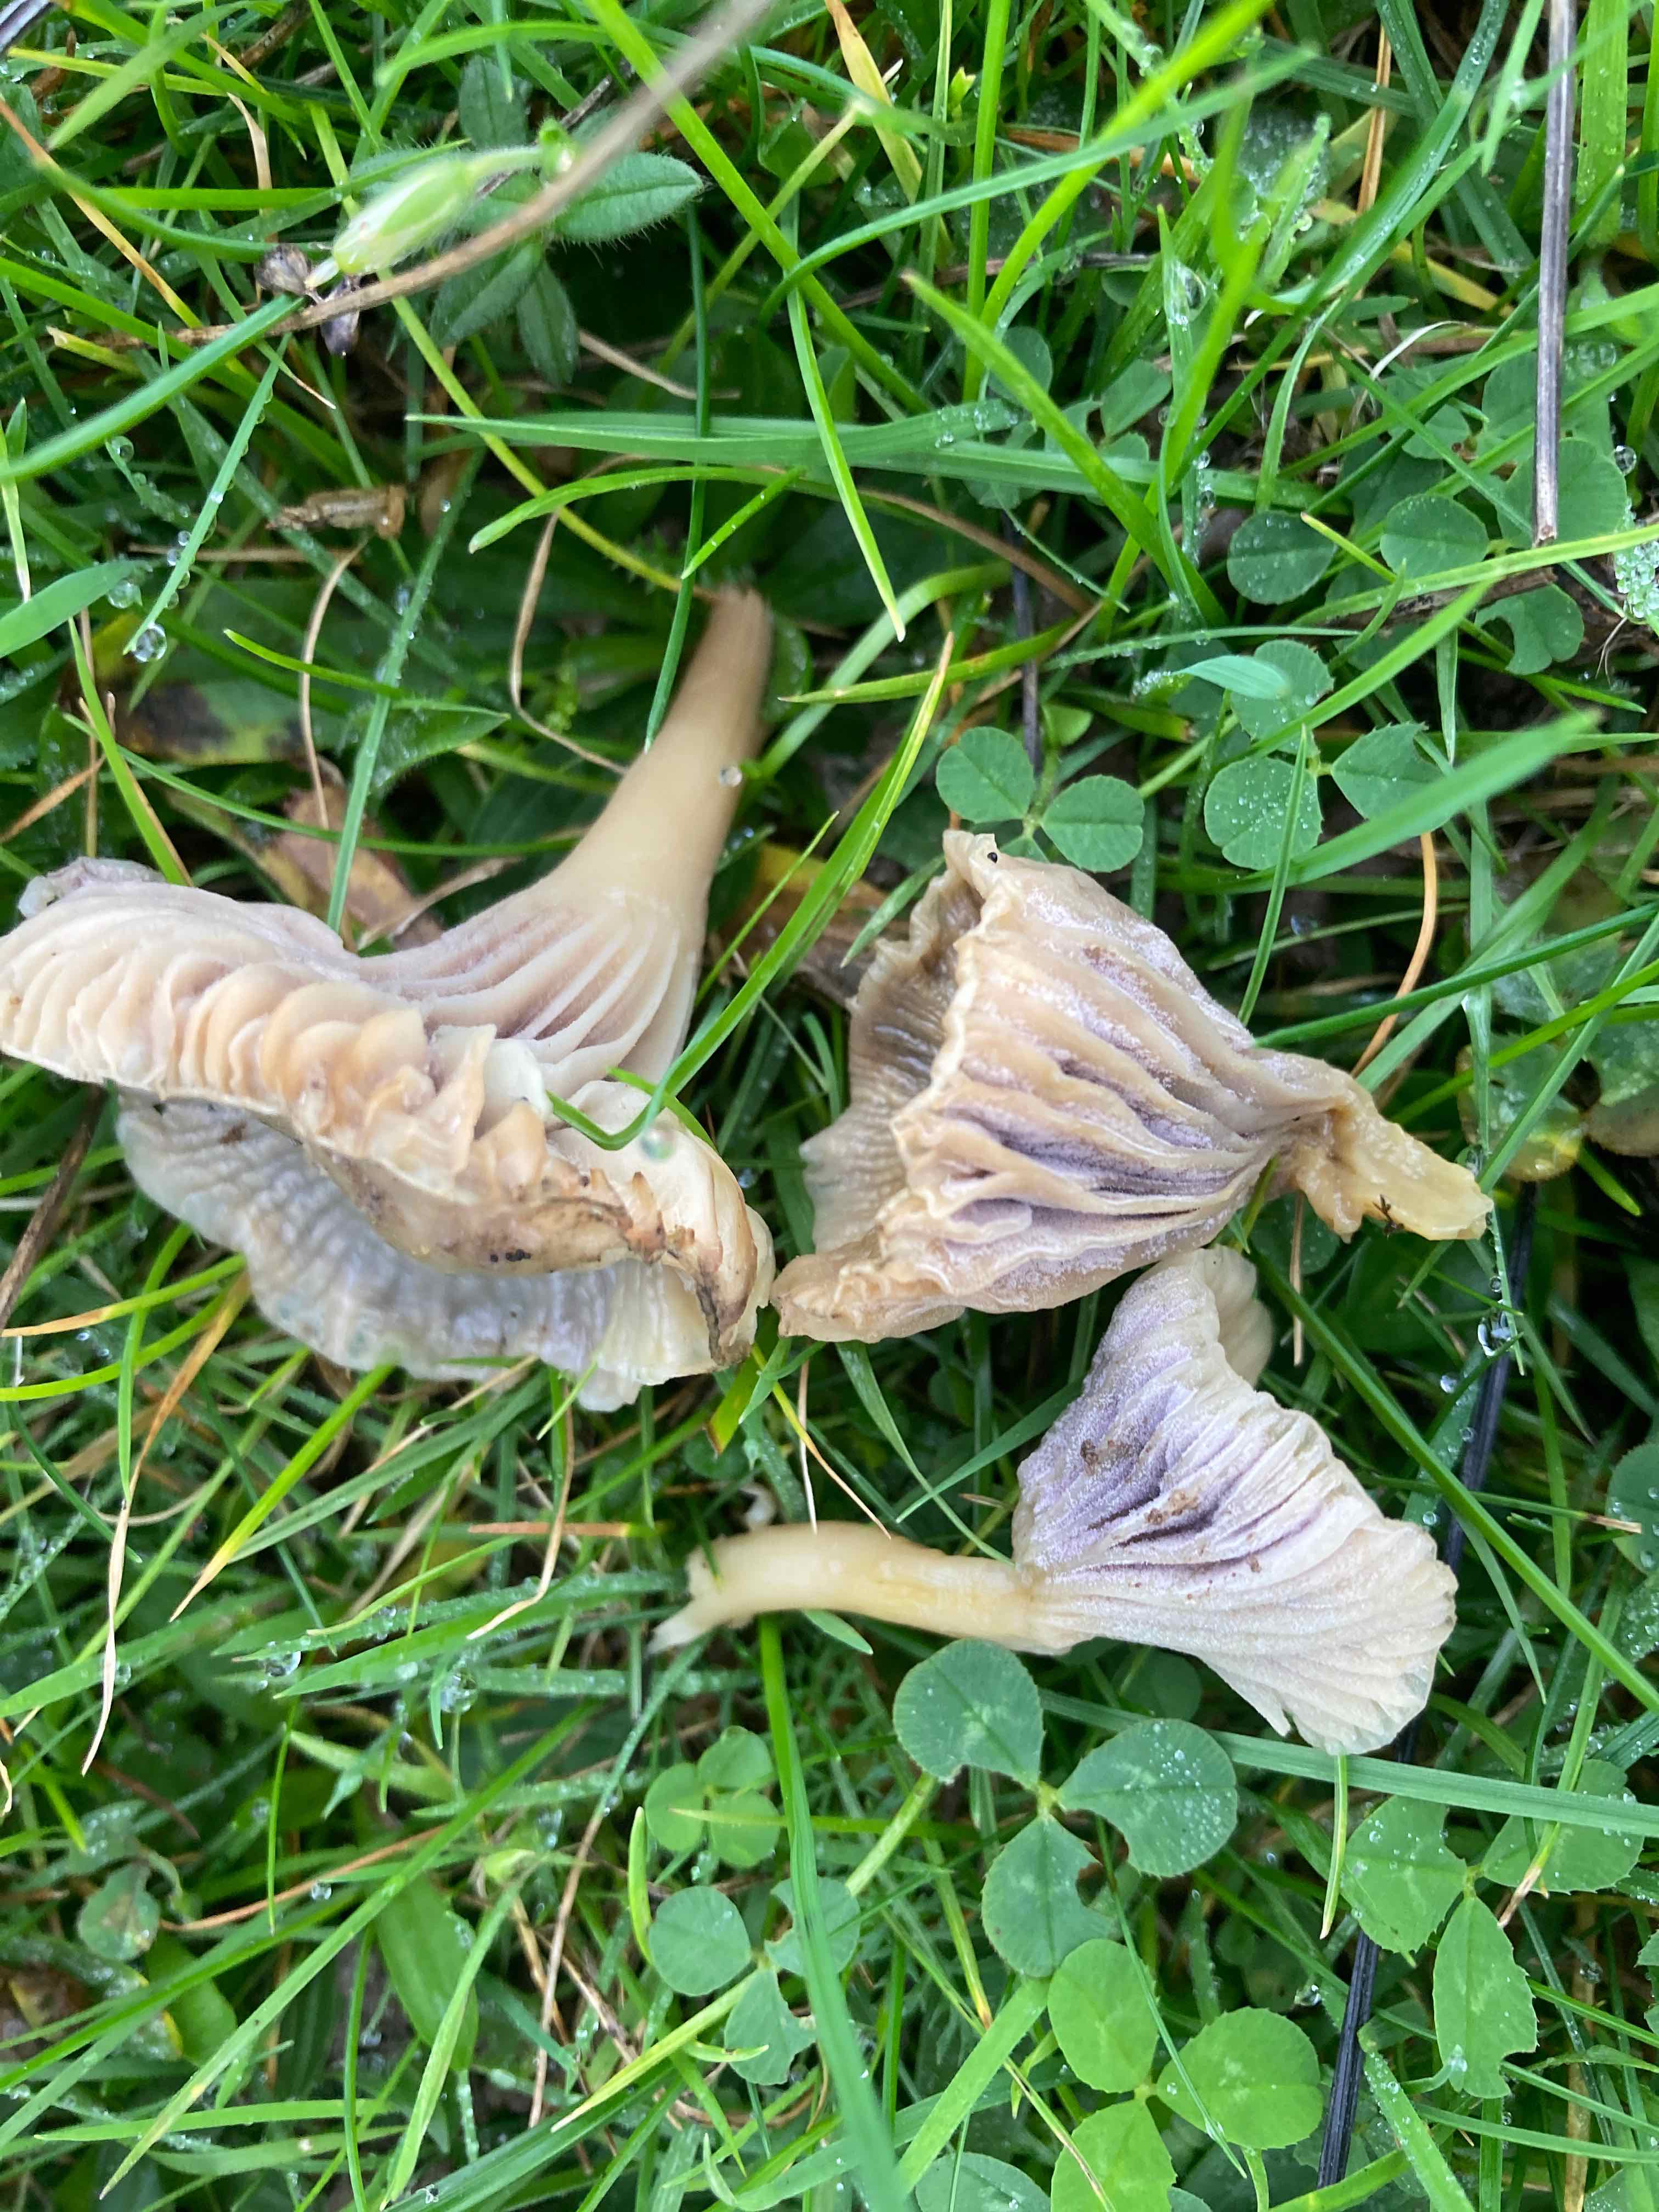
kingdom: Fungi
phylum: Ascomycota
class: Sordariomycetes
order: Hypocreales
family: Clavicipitaceae
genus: Marquandomyces
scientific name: Marquandomyces marquandii
